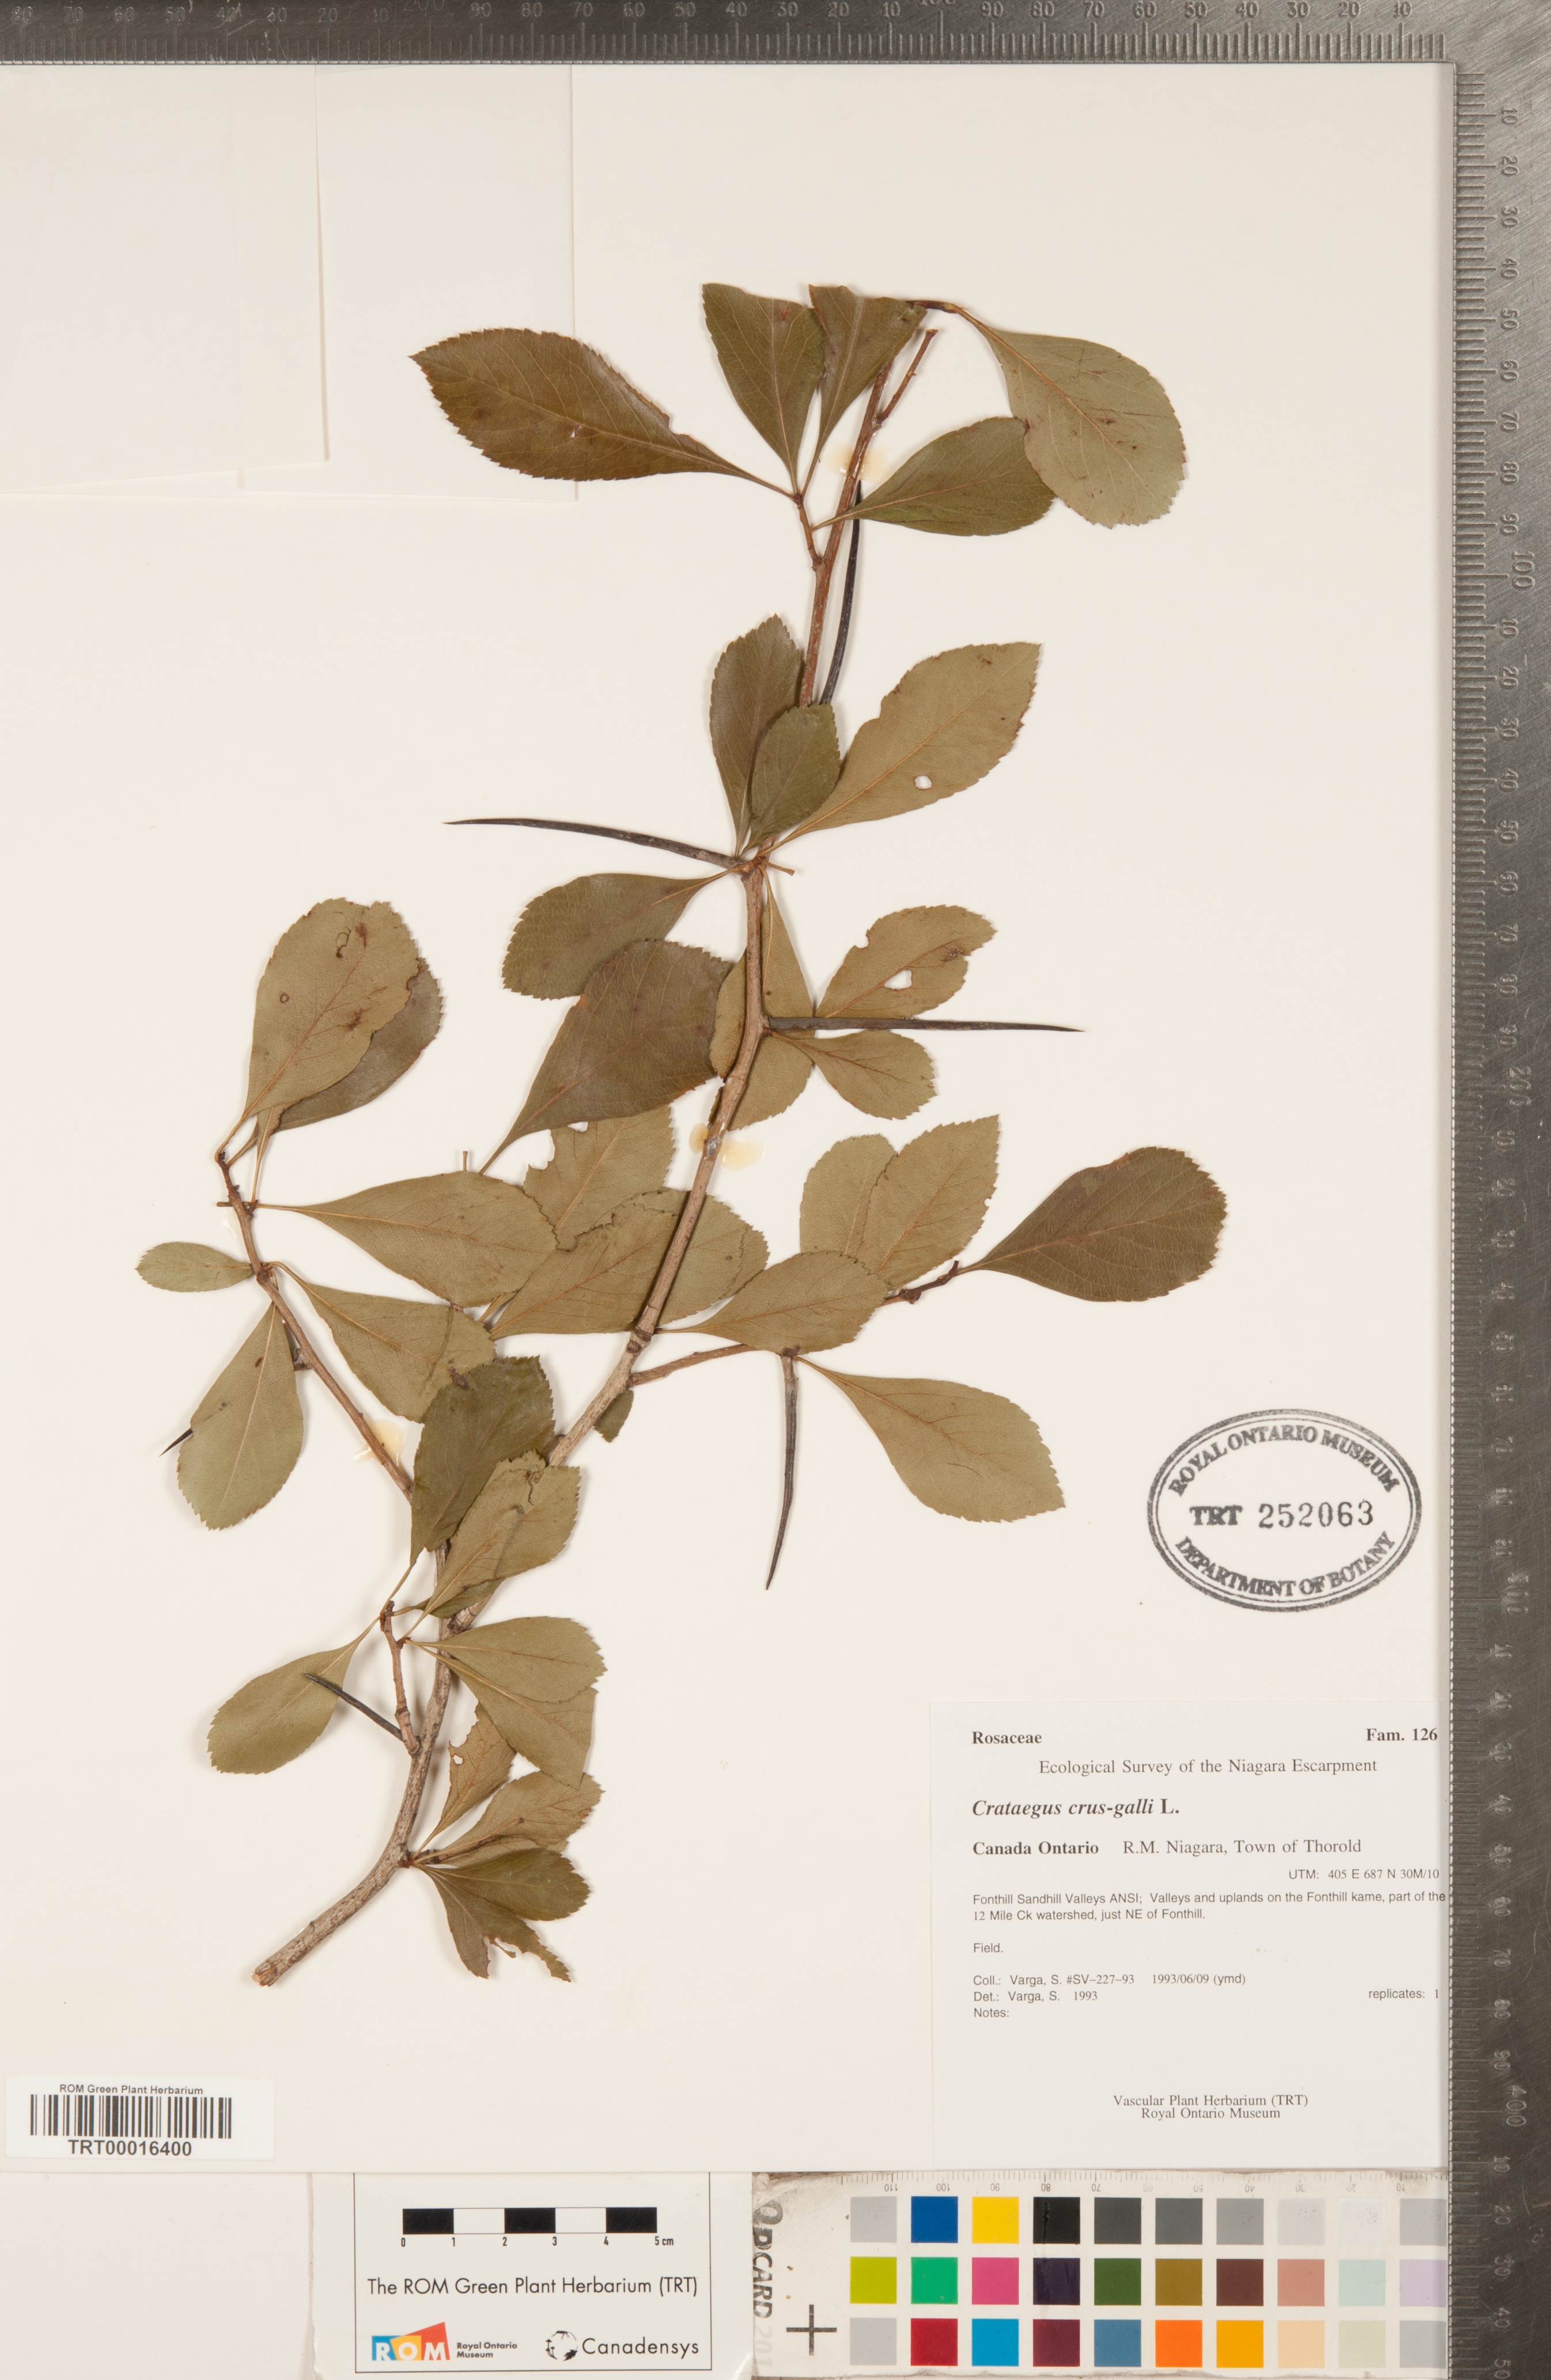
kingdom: Plantae
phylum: Tracheophyta
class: Magnoliopsida
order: Rosales
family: Rosaceae
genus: Crataegus
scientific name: Crataegus crus-galli
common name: Cockspurthorn
